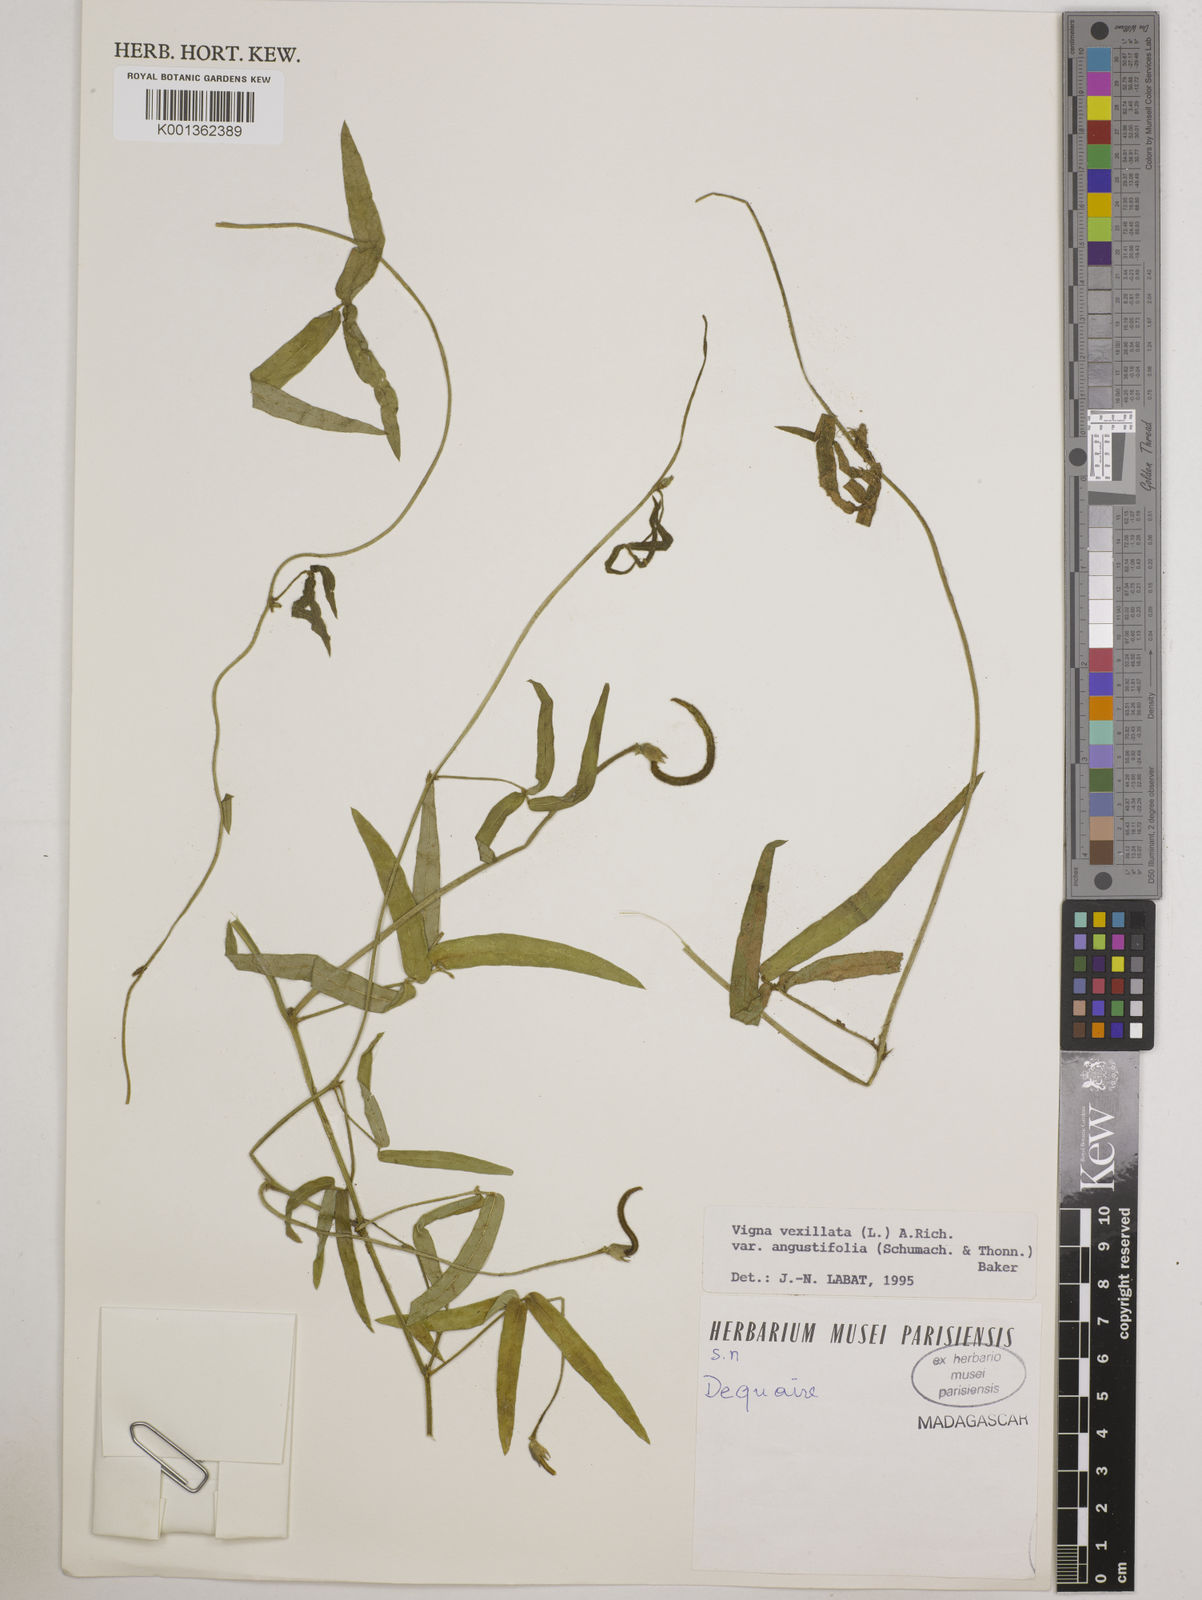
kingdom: Plantae
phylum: Tracheophyta
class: Magnoliopsida
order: Fabales
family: Fabaceae
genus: Vigna
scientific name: Vigna vexillata
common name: Zombi pea
